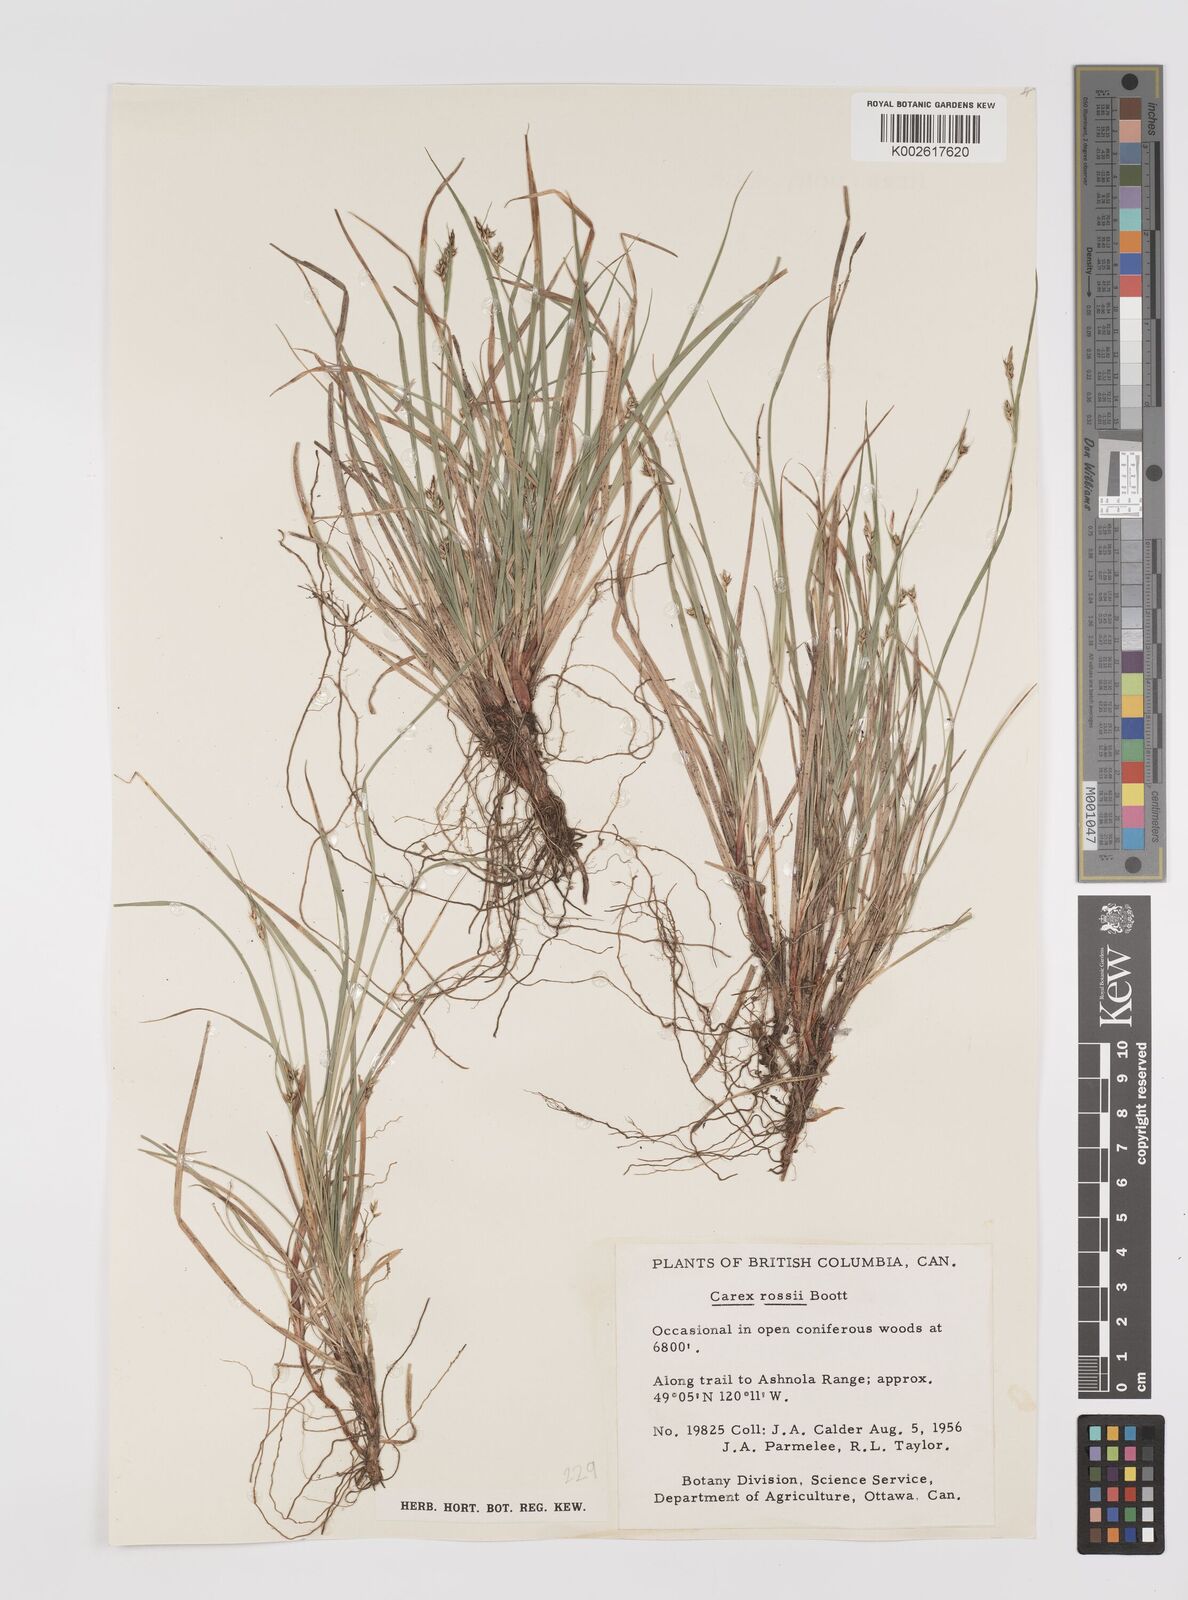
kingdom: Plantae
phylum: Tracheophyta
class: Liliopsida
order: Poales
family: Cyperaceae
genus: Carex
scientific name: Carex rossii
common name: Ross' sedge
